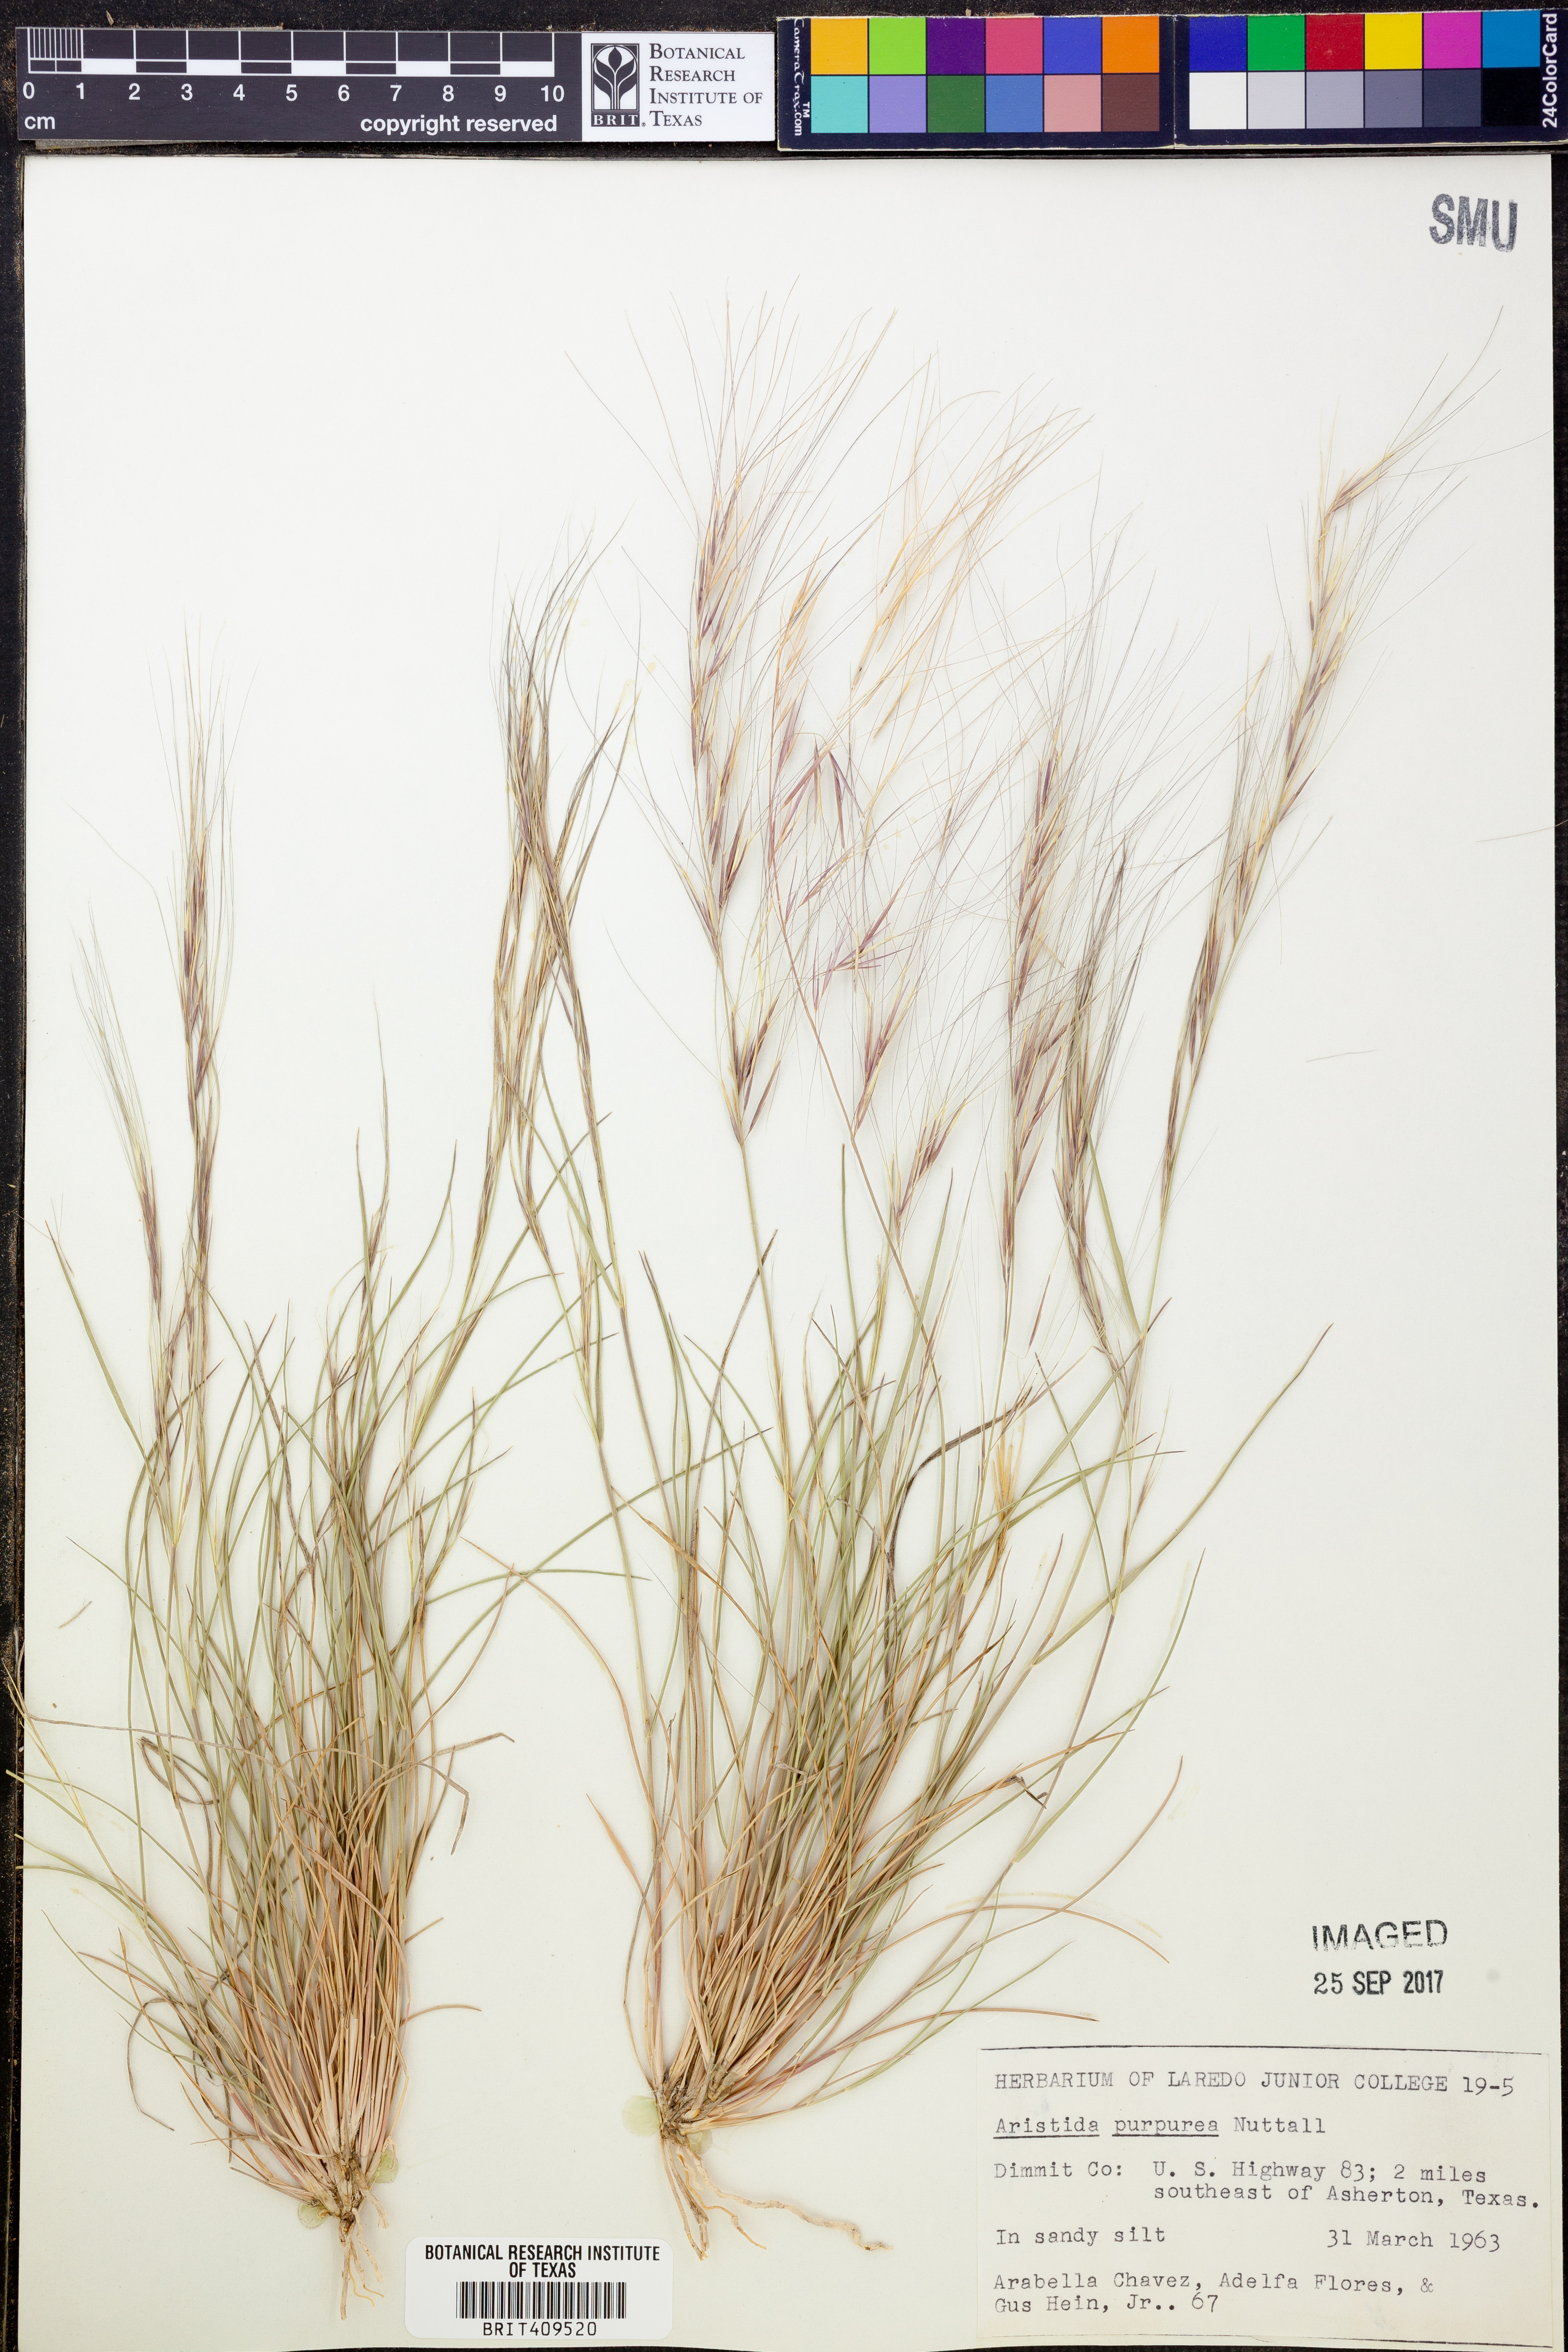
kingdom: Plantae
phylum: Tracheophyta
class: Liliopsida
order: Poales
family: Poaceae
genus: Aristida
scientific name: Aristida purpurea
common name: Purple threeawn
